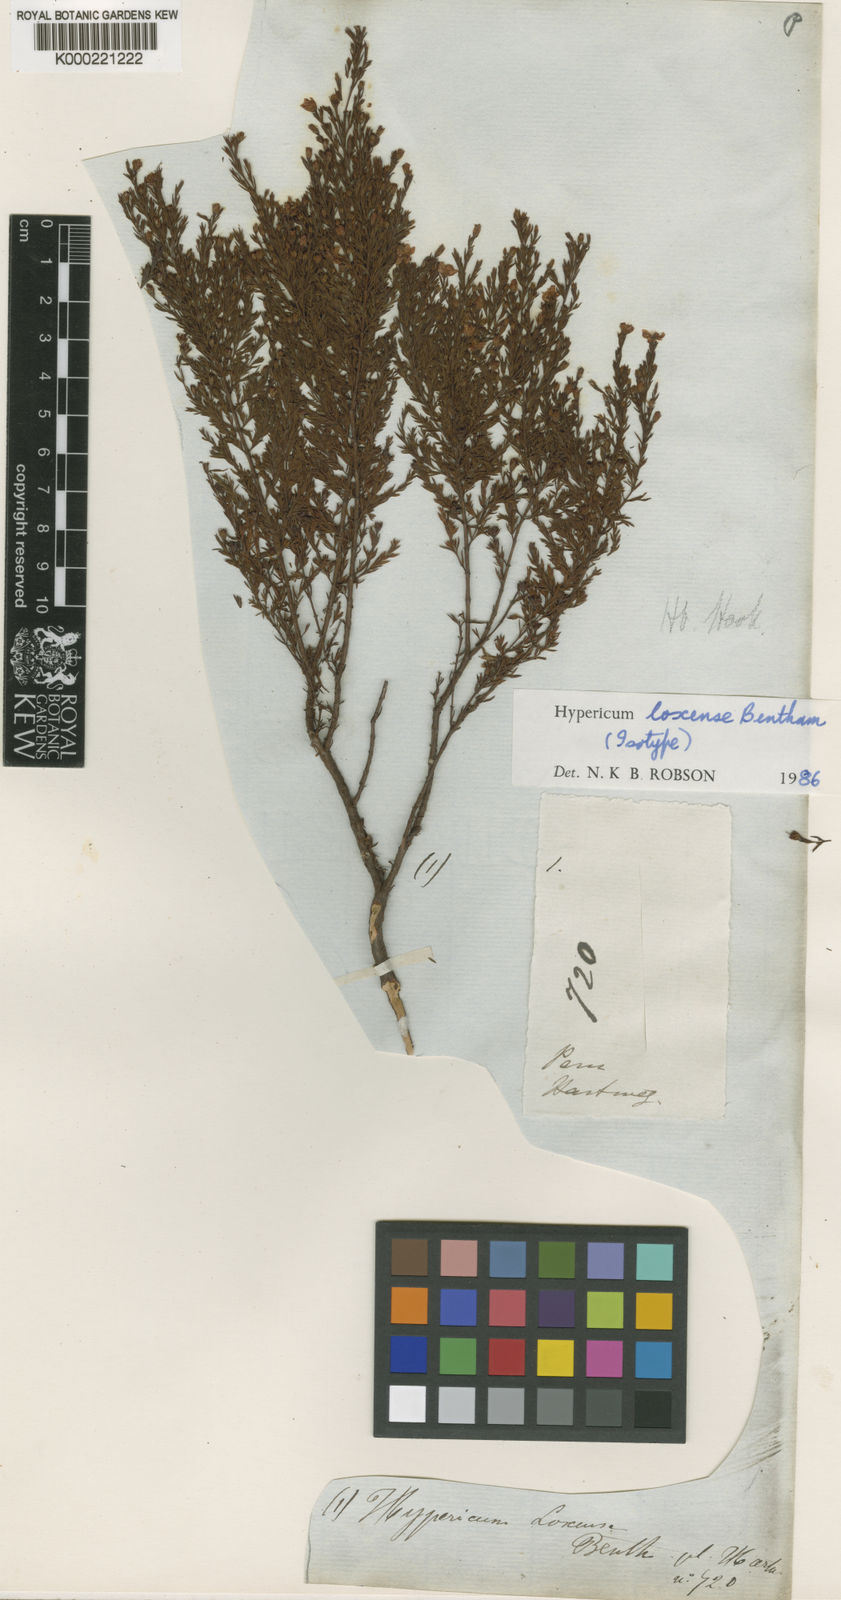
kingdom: Plantae
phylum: Tracheophyta
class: Magnoliopsida
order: Malpighiales
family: Hypericaceae
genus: Hypericum
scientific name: Hypericum loxense
